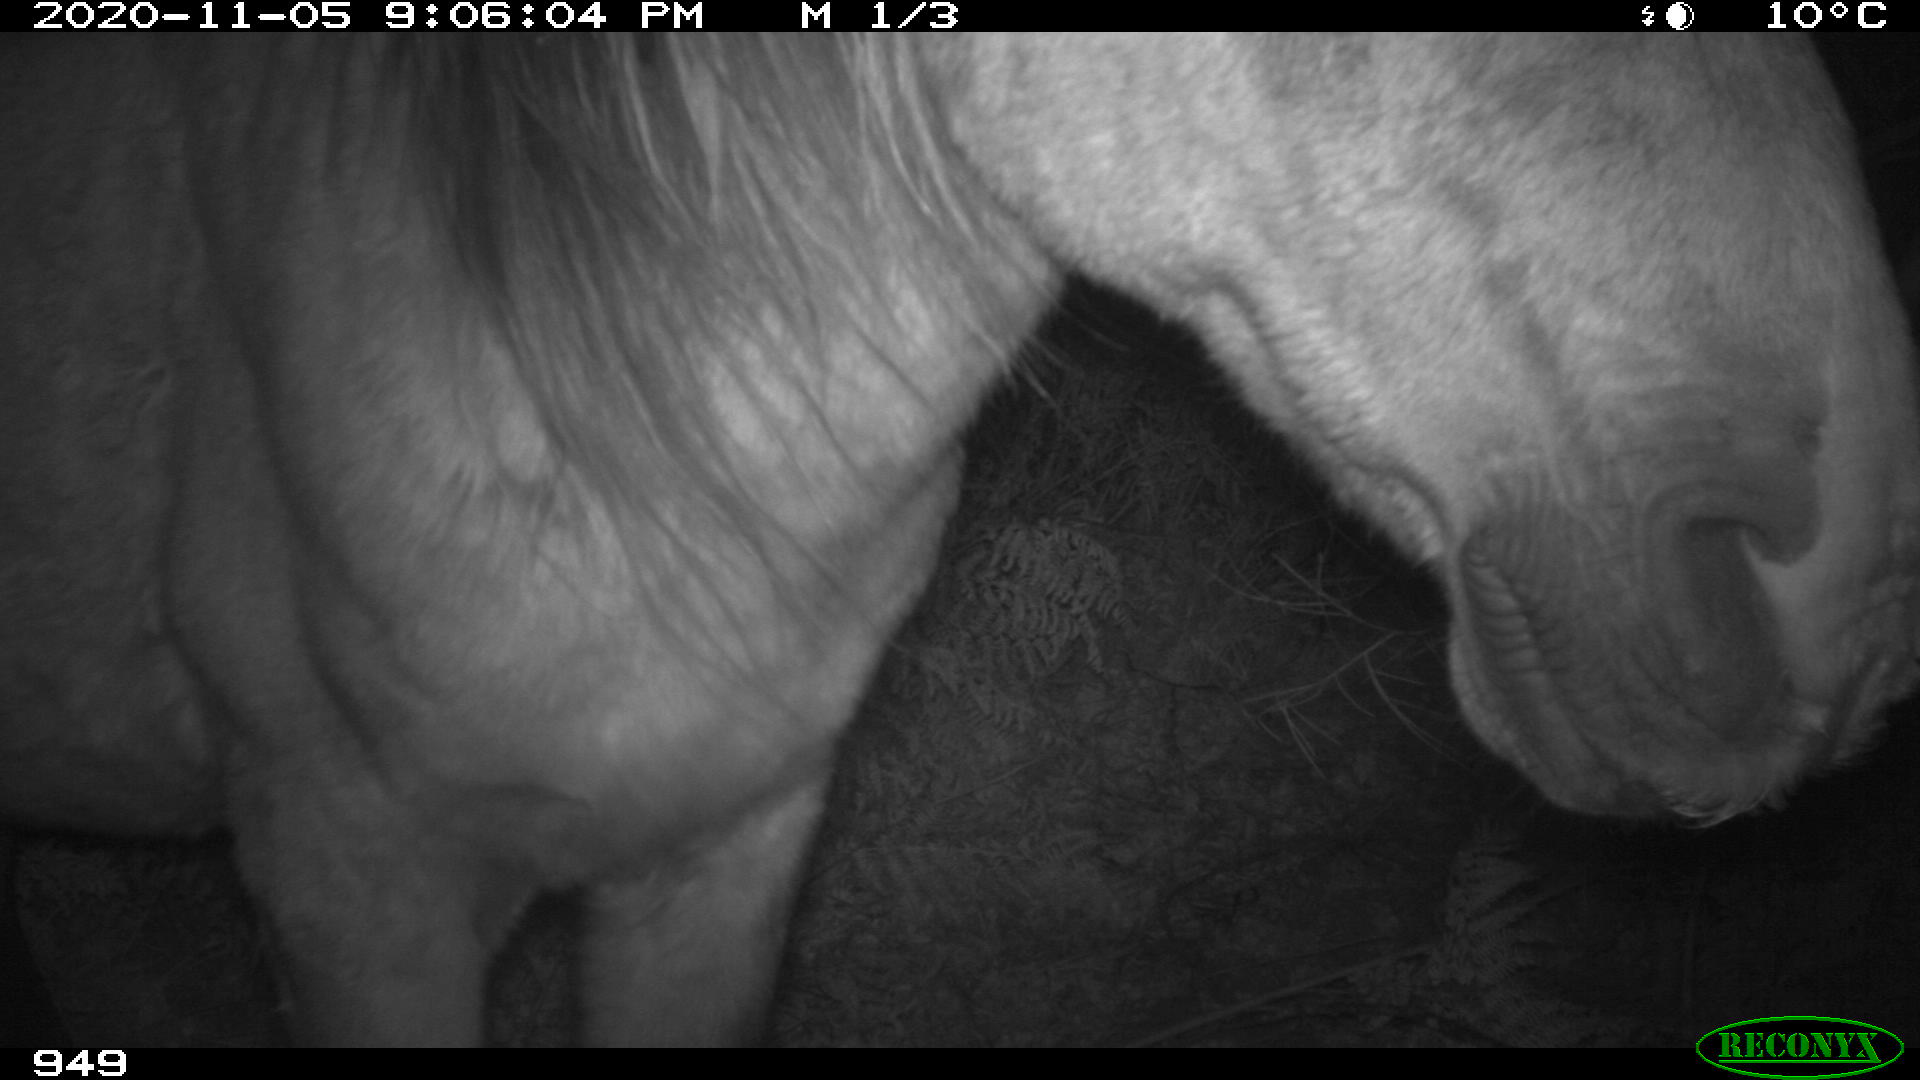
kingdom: Animalia
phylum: Chordata
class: Mammalia
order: Perissodactyla
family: Equidae
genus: Equus
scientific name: Equus caballus
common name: Horse
